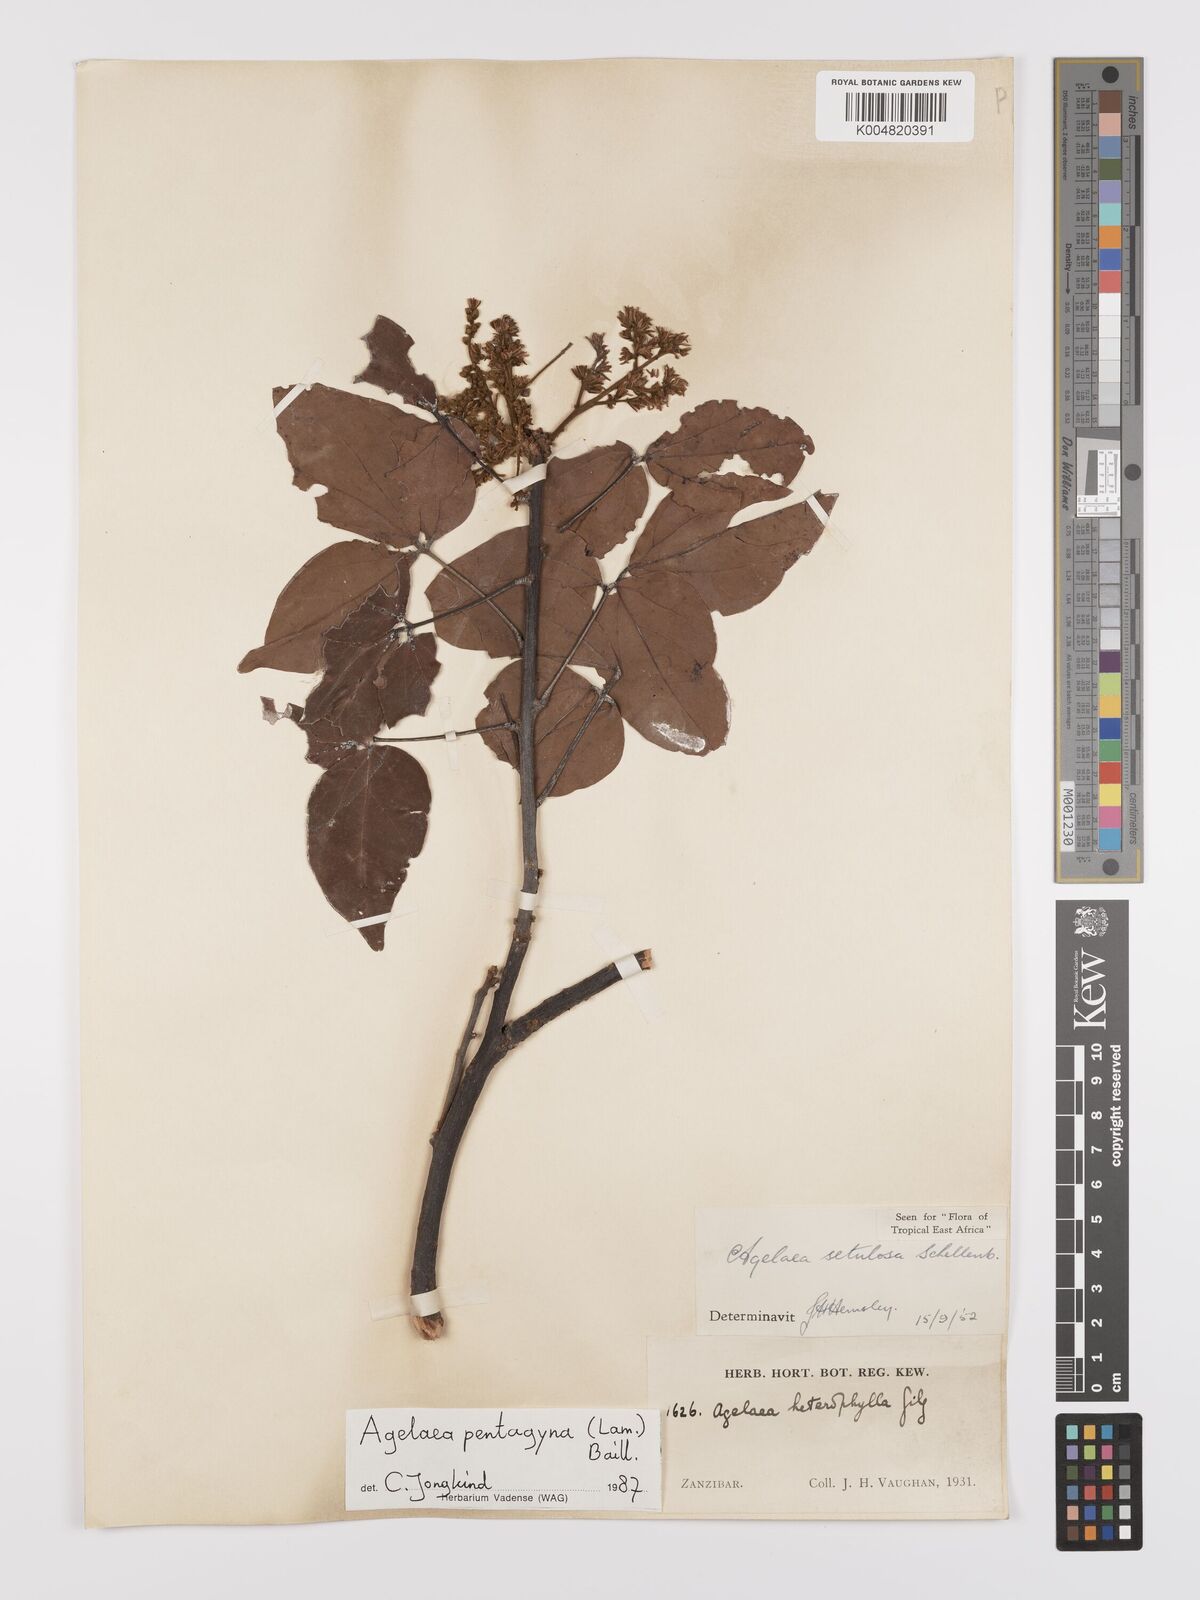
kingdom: Plantae
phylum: Tracheophyta
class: Magnoliopsida
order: Oxalidales
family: Connaraceae
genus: Agelaea
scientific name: Agelaea pentagyna
